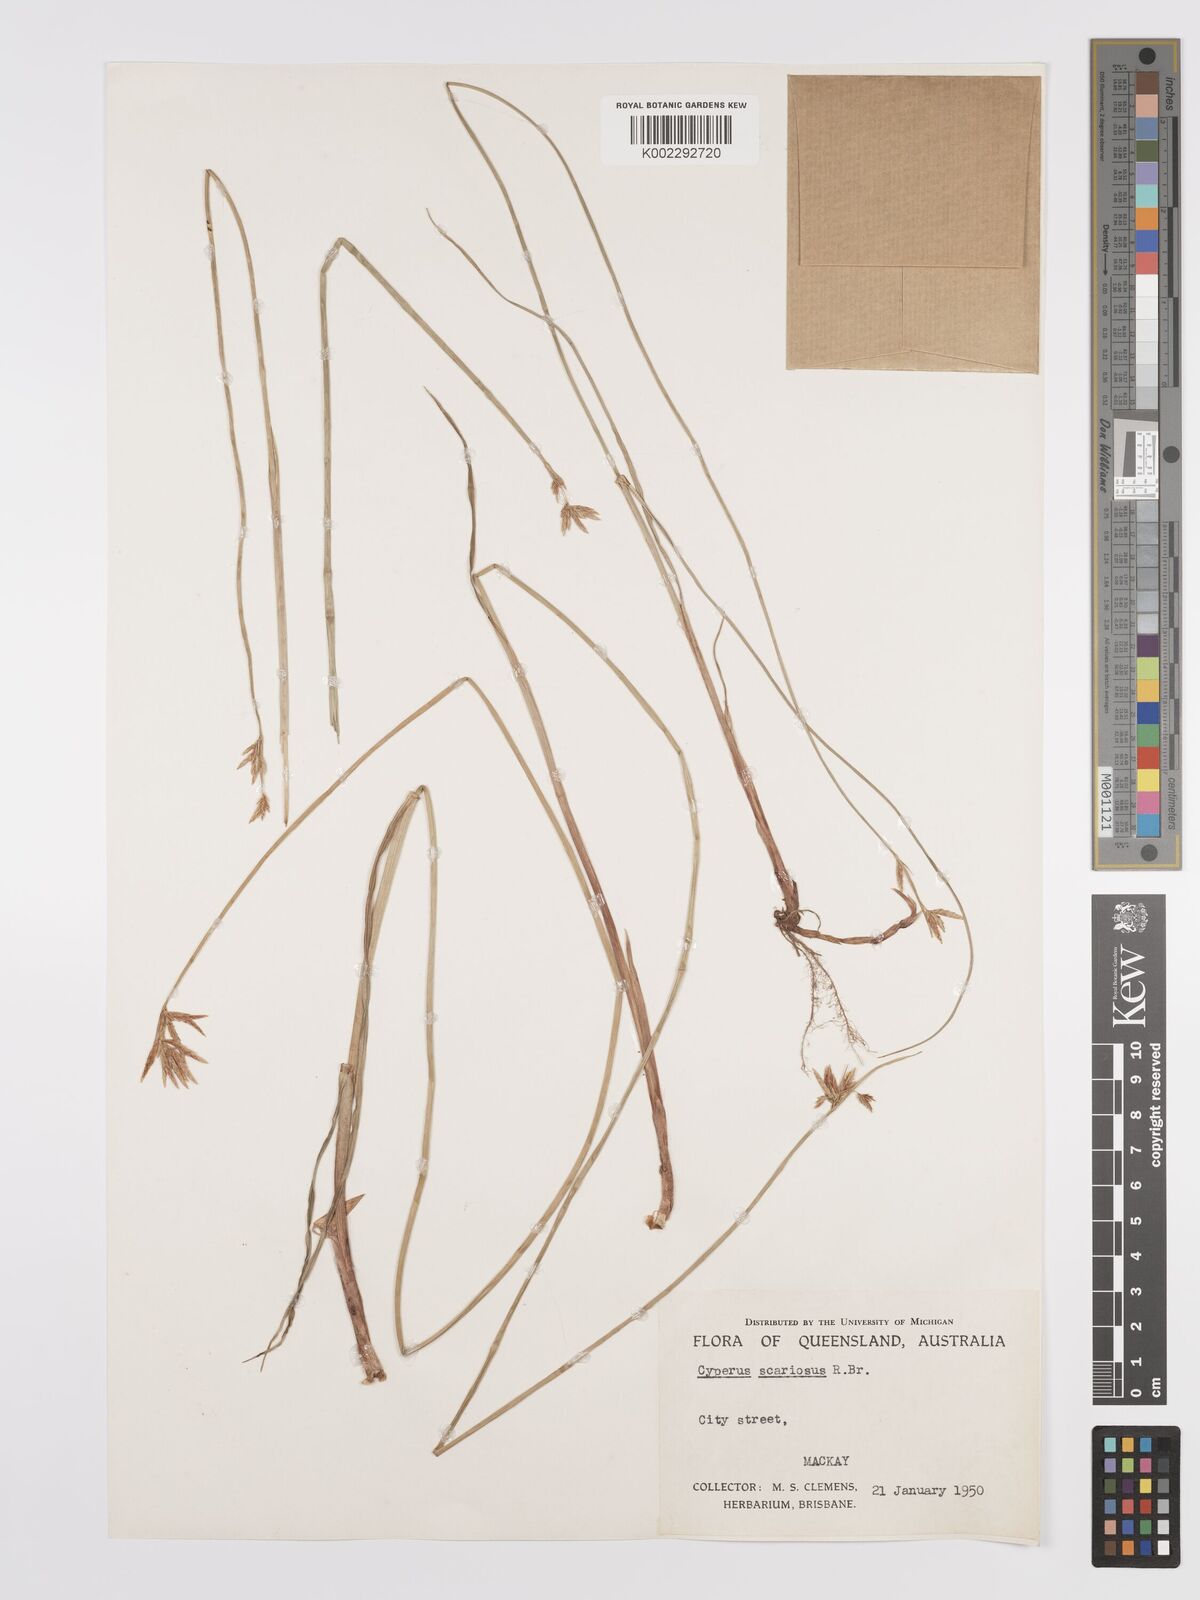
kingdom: Plantae
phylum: Tracheophyta
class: Liliopsida
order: Poales
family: Cyperaceae
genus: Cyperus
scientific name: Cyperus scariosus
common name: Cypriol
